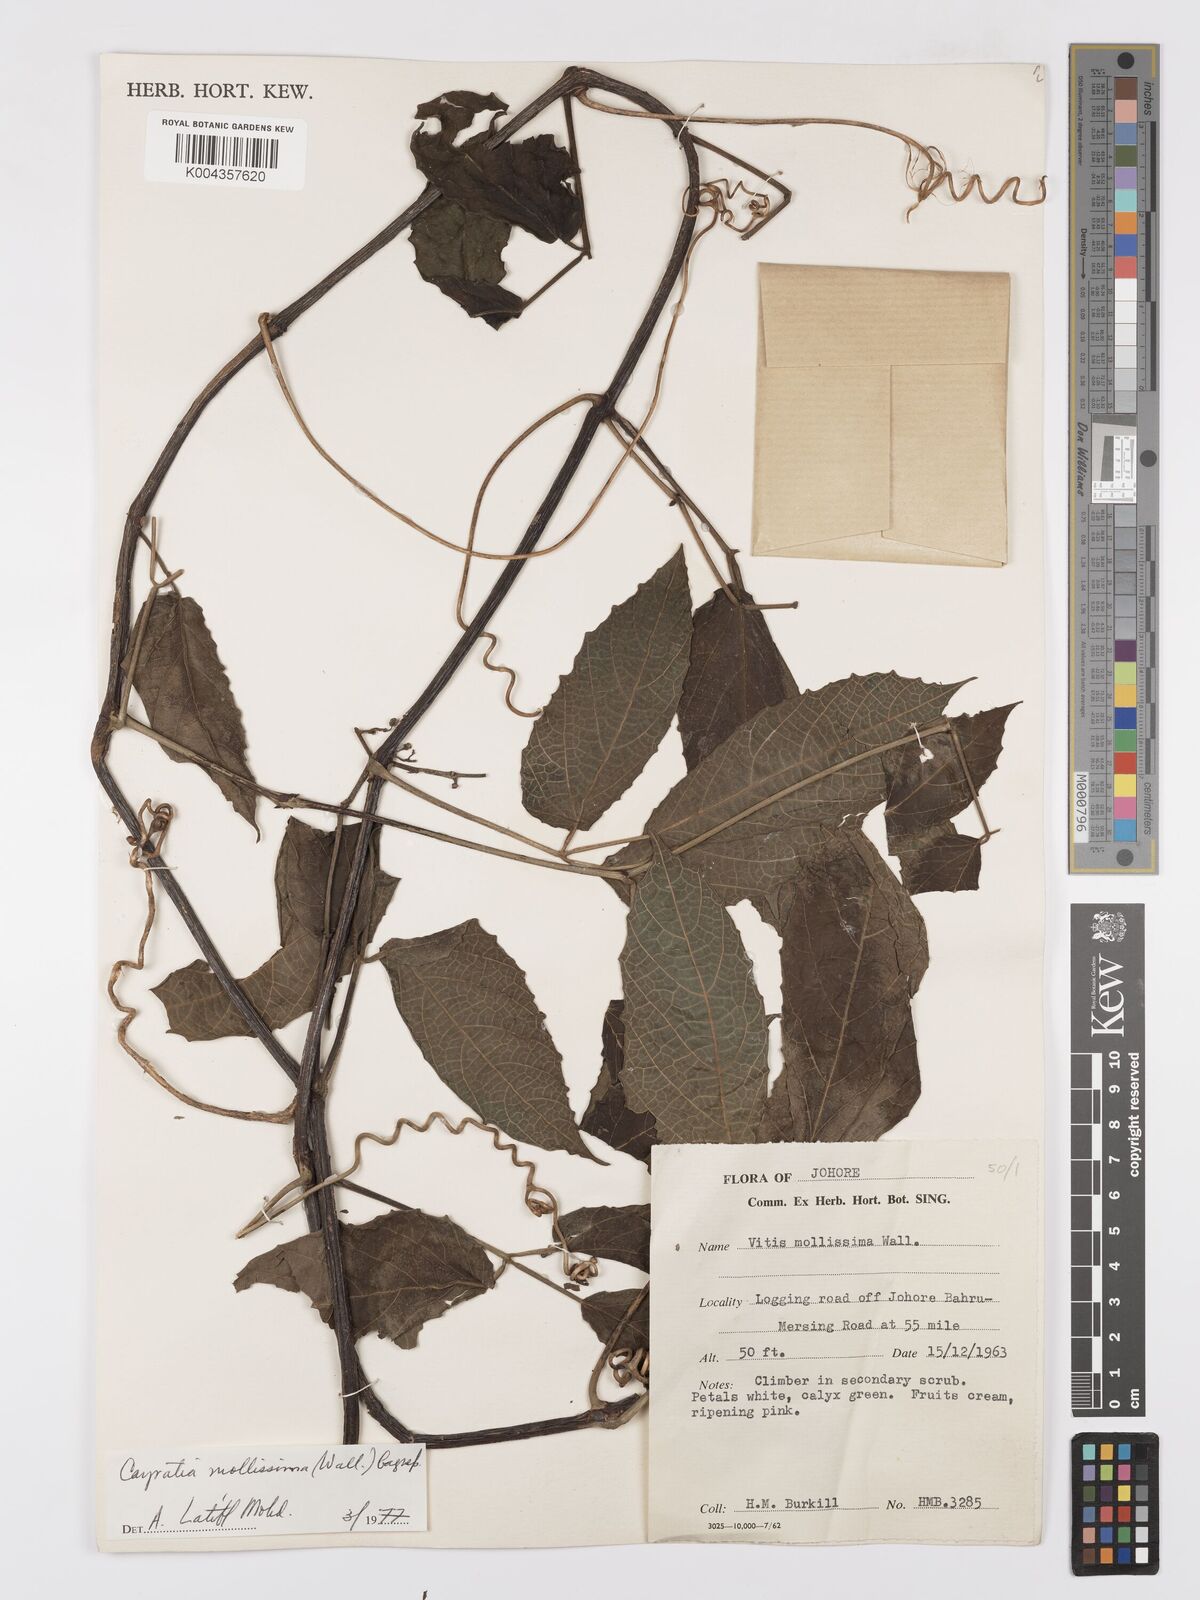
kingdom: Plantae
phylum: Tracheophyta
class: Magnoliopsida
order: Vitales
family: Vitaceae
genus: Cayratia
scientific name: Cayratia mollissima
